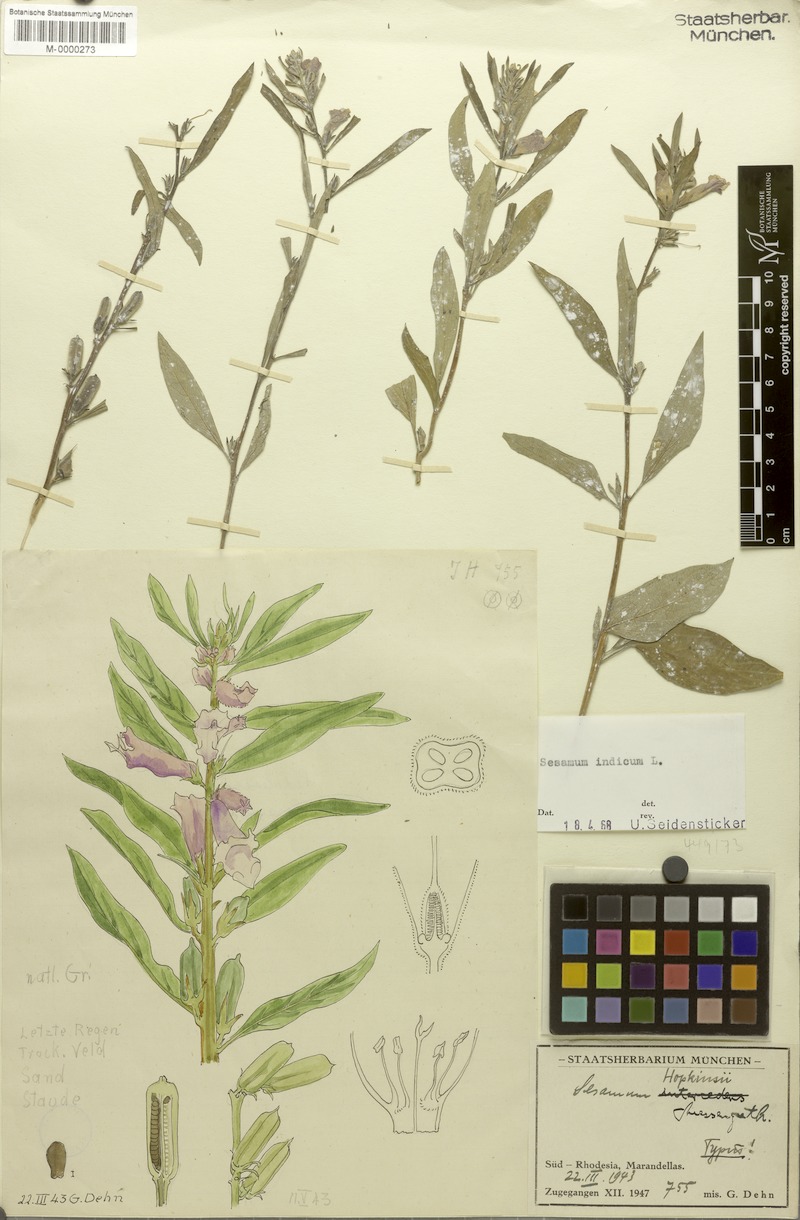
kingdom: Plantae
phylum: Tracheophyta
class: Magnoliopsida
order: Lamiales
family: Pedaliaceae
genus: Sesamum
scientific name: Sesamum indicum
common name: Sesame
